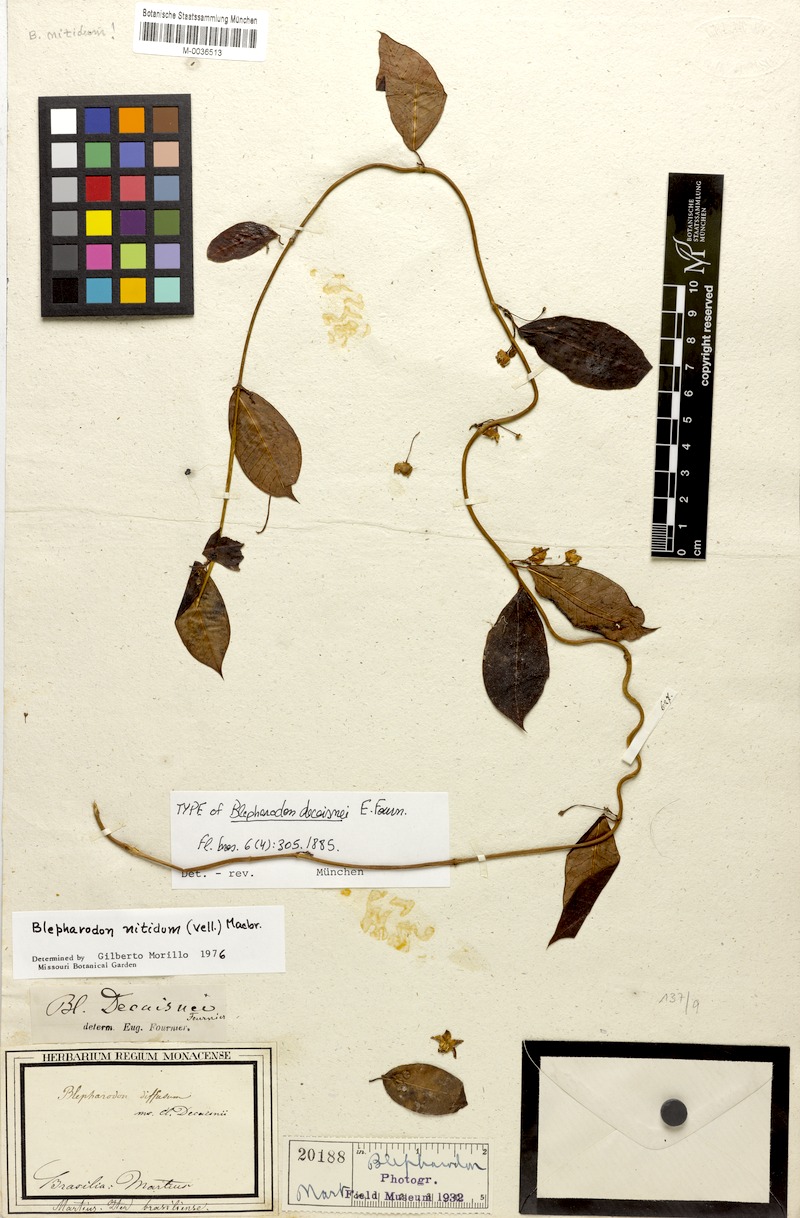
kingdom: Plantae
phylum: Tracheophyta
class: Magnoliopsida
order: Gentianales
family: Apocynaceae
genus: Blepharodon
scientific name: Blepharodon pictum
